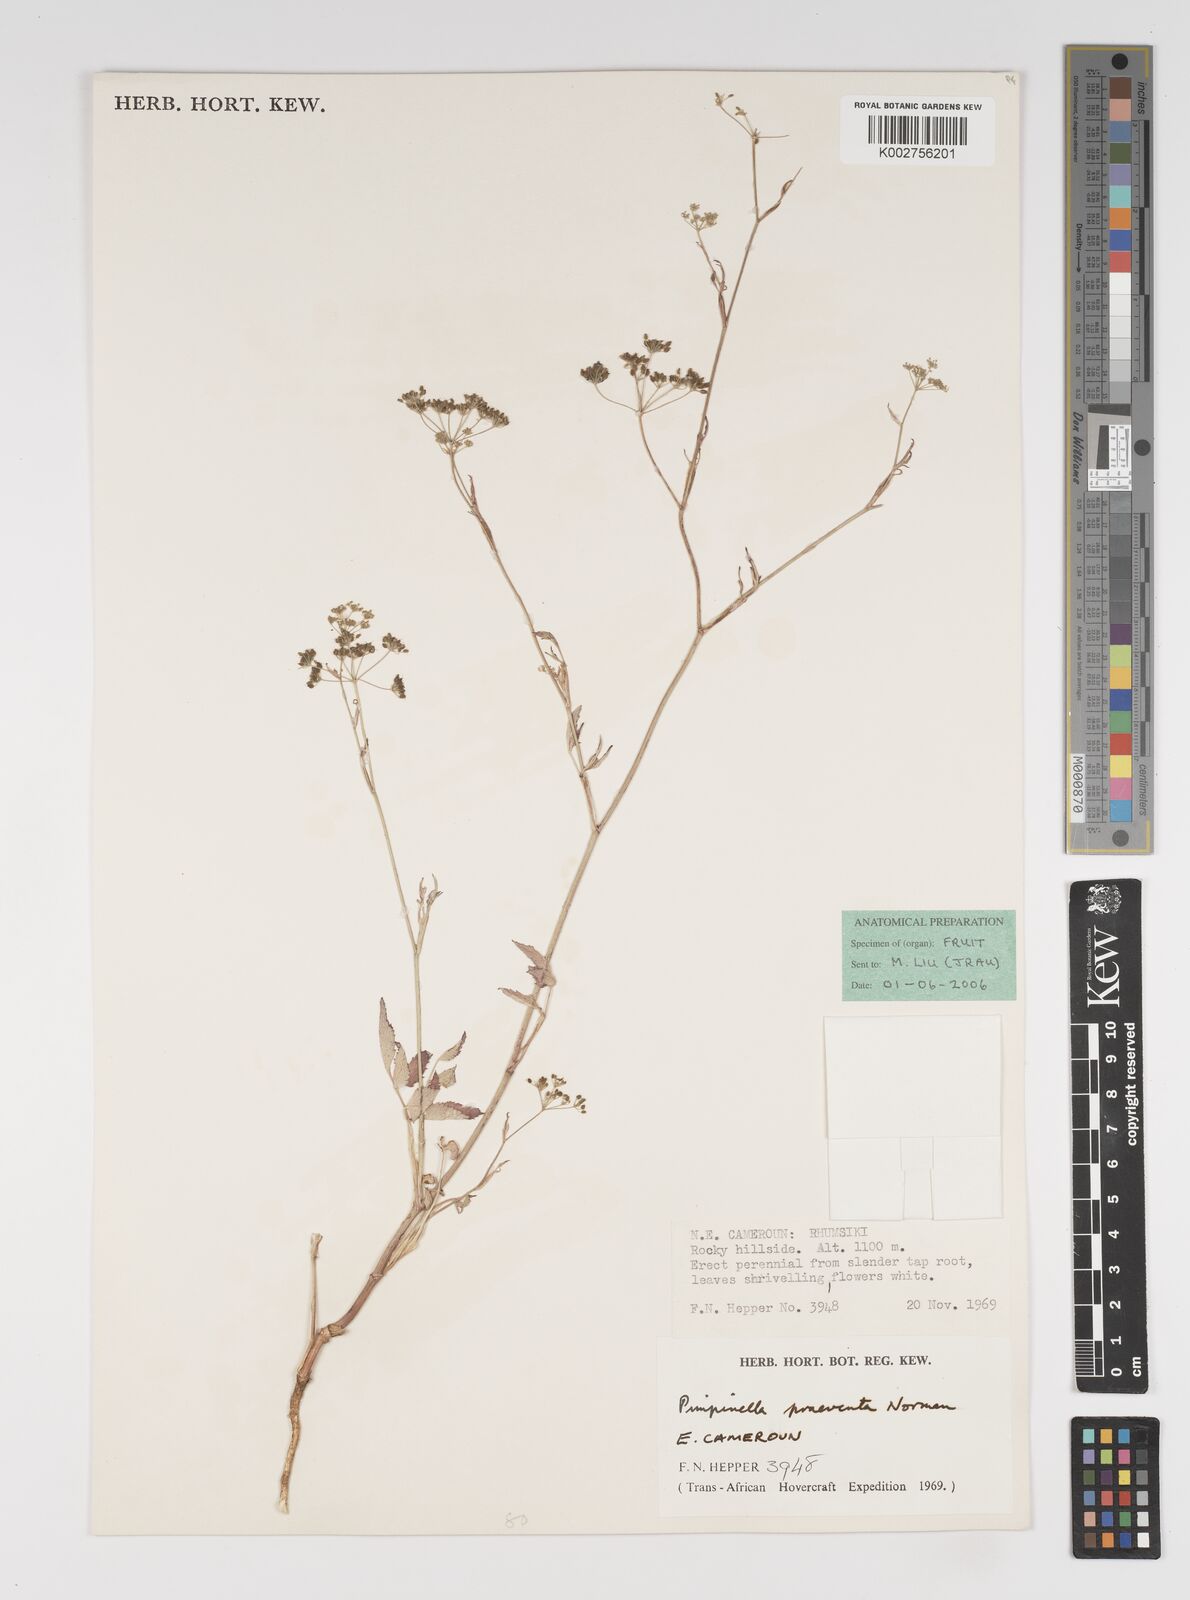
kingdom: Plantae
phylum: Tracheophyta
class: Magnoliopsida
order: Apiales
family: Apiaceae
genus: Pimpinella
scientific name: Pimpinella hirtella
